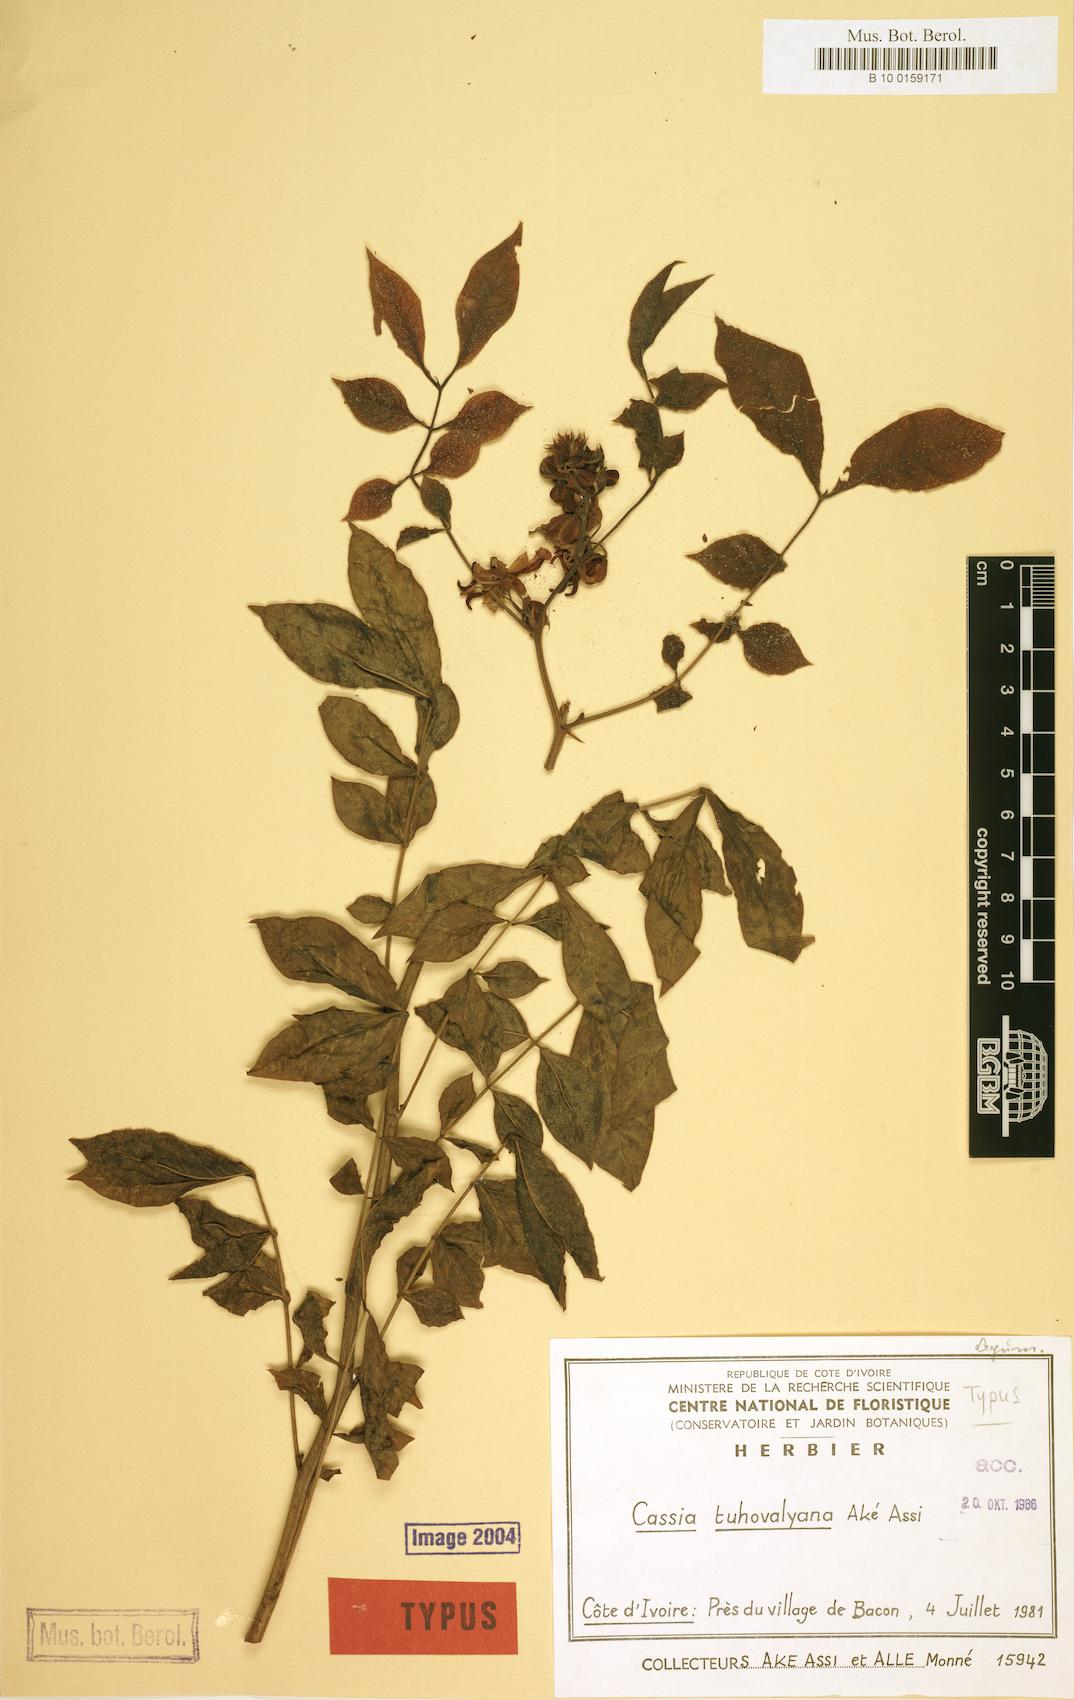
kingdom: Plantae
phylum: Tracheophyta
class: Magnoliopsida
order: Fabales
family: Fabaceae
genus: Senna
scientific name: Senna tuhovalyana
